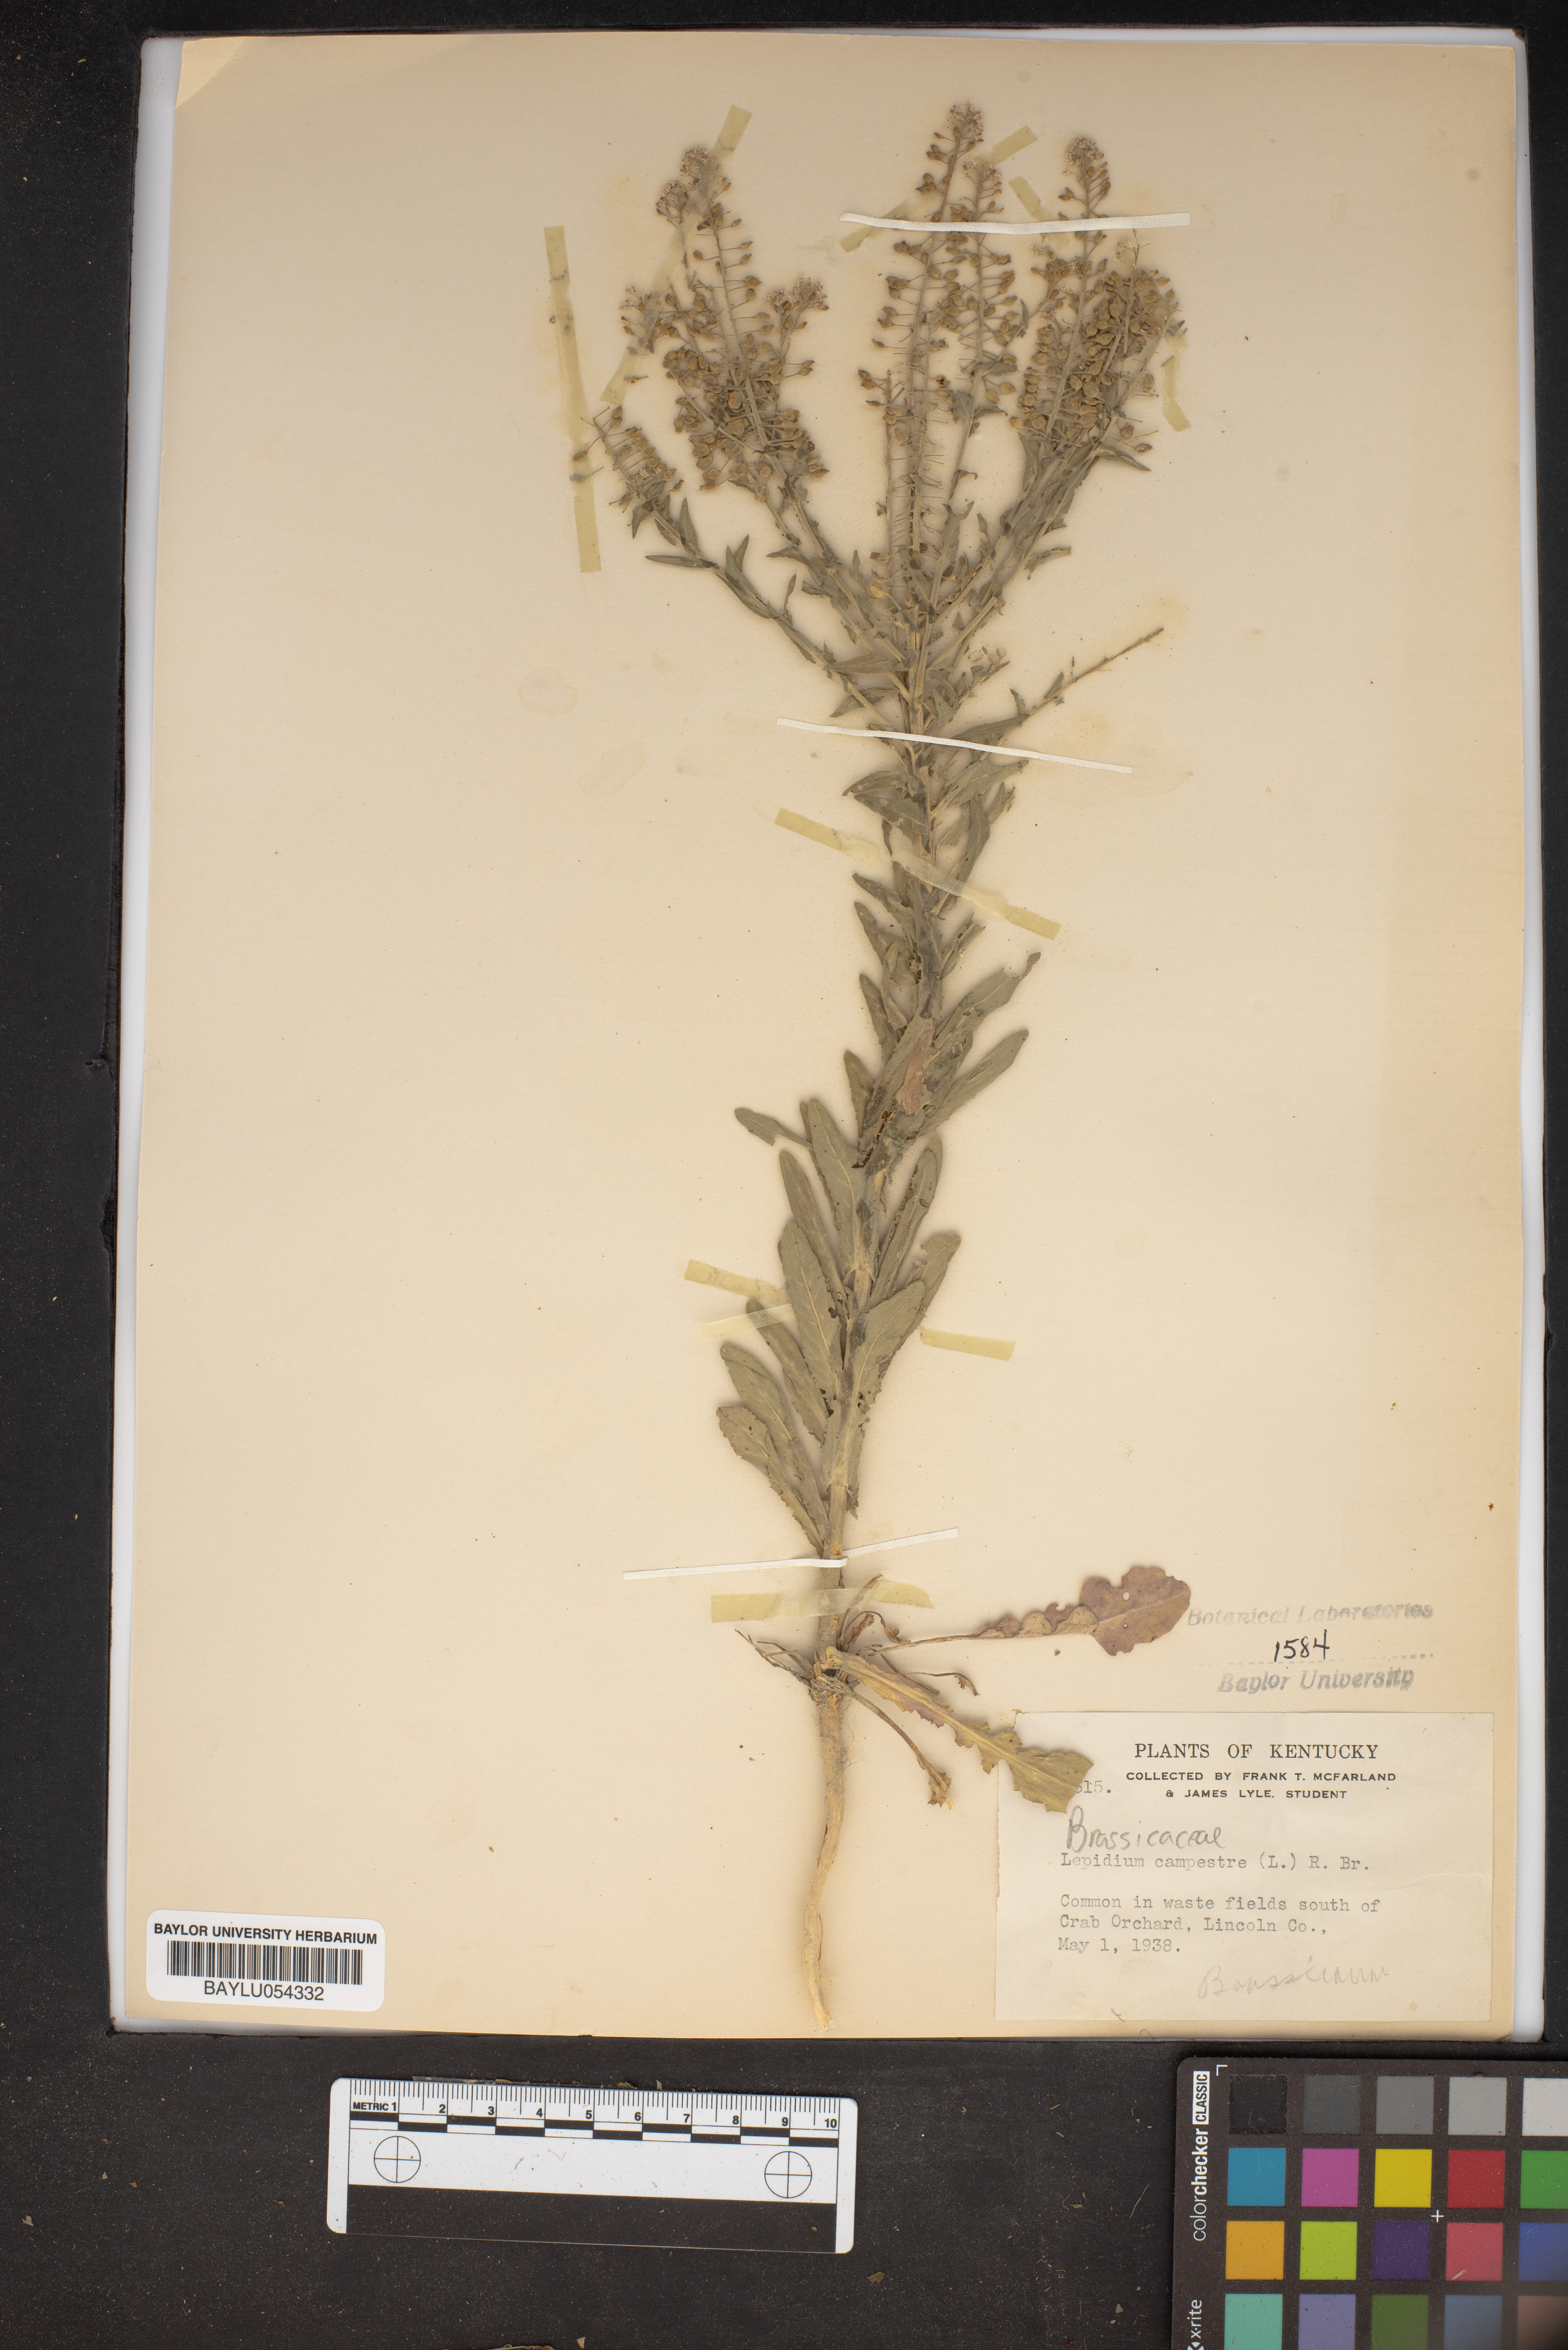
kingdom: Plantae
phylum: Tracheophyta
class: Magnoliopsida
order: Brassicales
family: Brassicaceae
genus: Lepidium
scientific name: Lepidium campestre
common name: Field pepperwort
